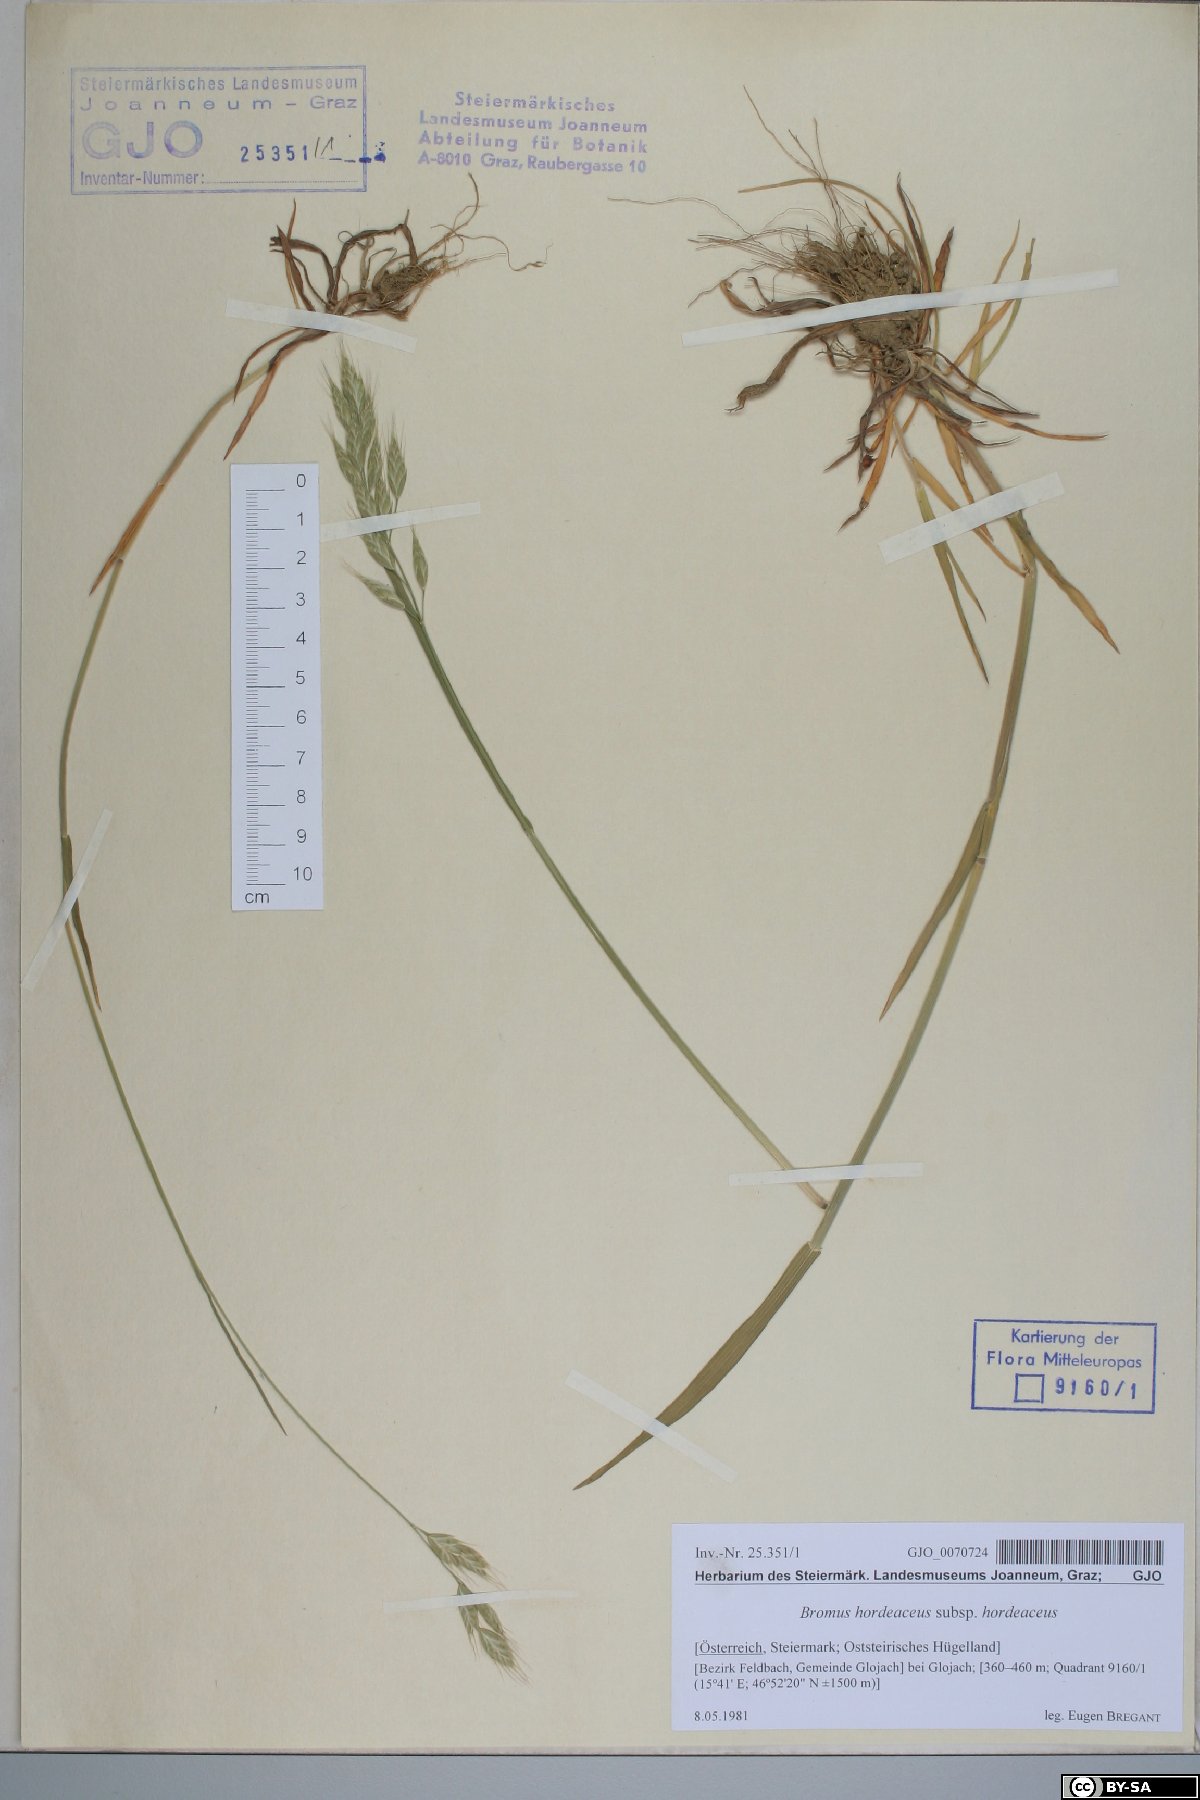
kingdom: Plantae
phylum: Tracheophyta
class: Liliopsida
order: Poales
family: Poaceae
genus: Bromus
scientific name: Bromus hordeaceus
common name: Soft brome
